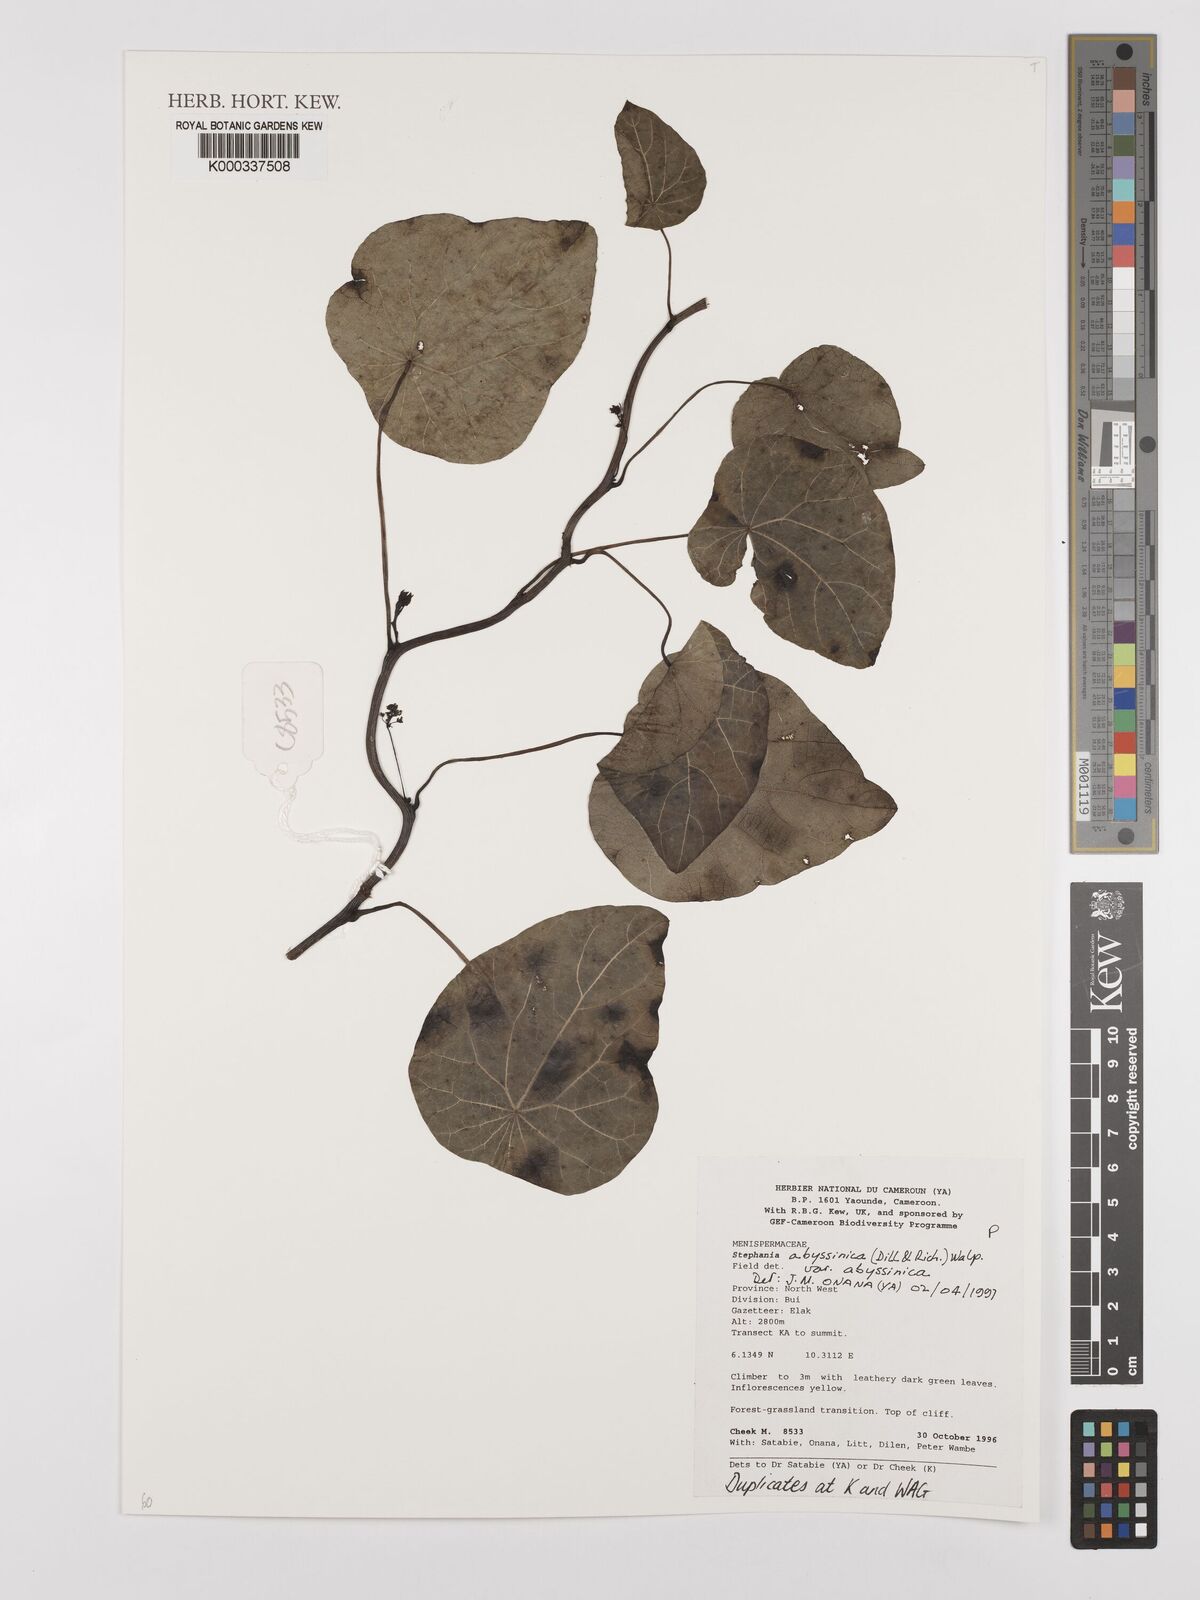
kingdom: Plantae
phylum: Tracheophyta
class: Magnoliopsida
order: Ranunculales
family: Menispermaceae
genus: Stephania
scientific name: Stephania abyssinica
